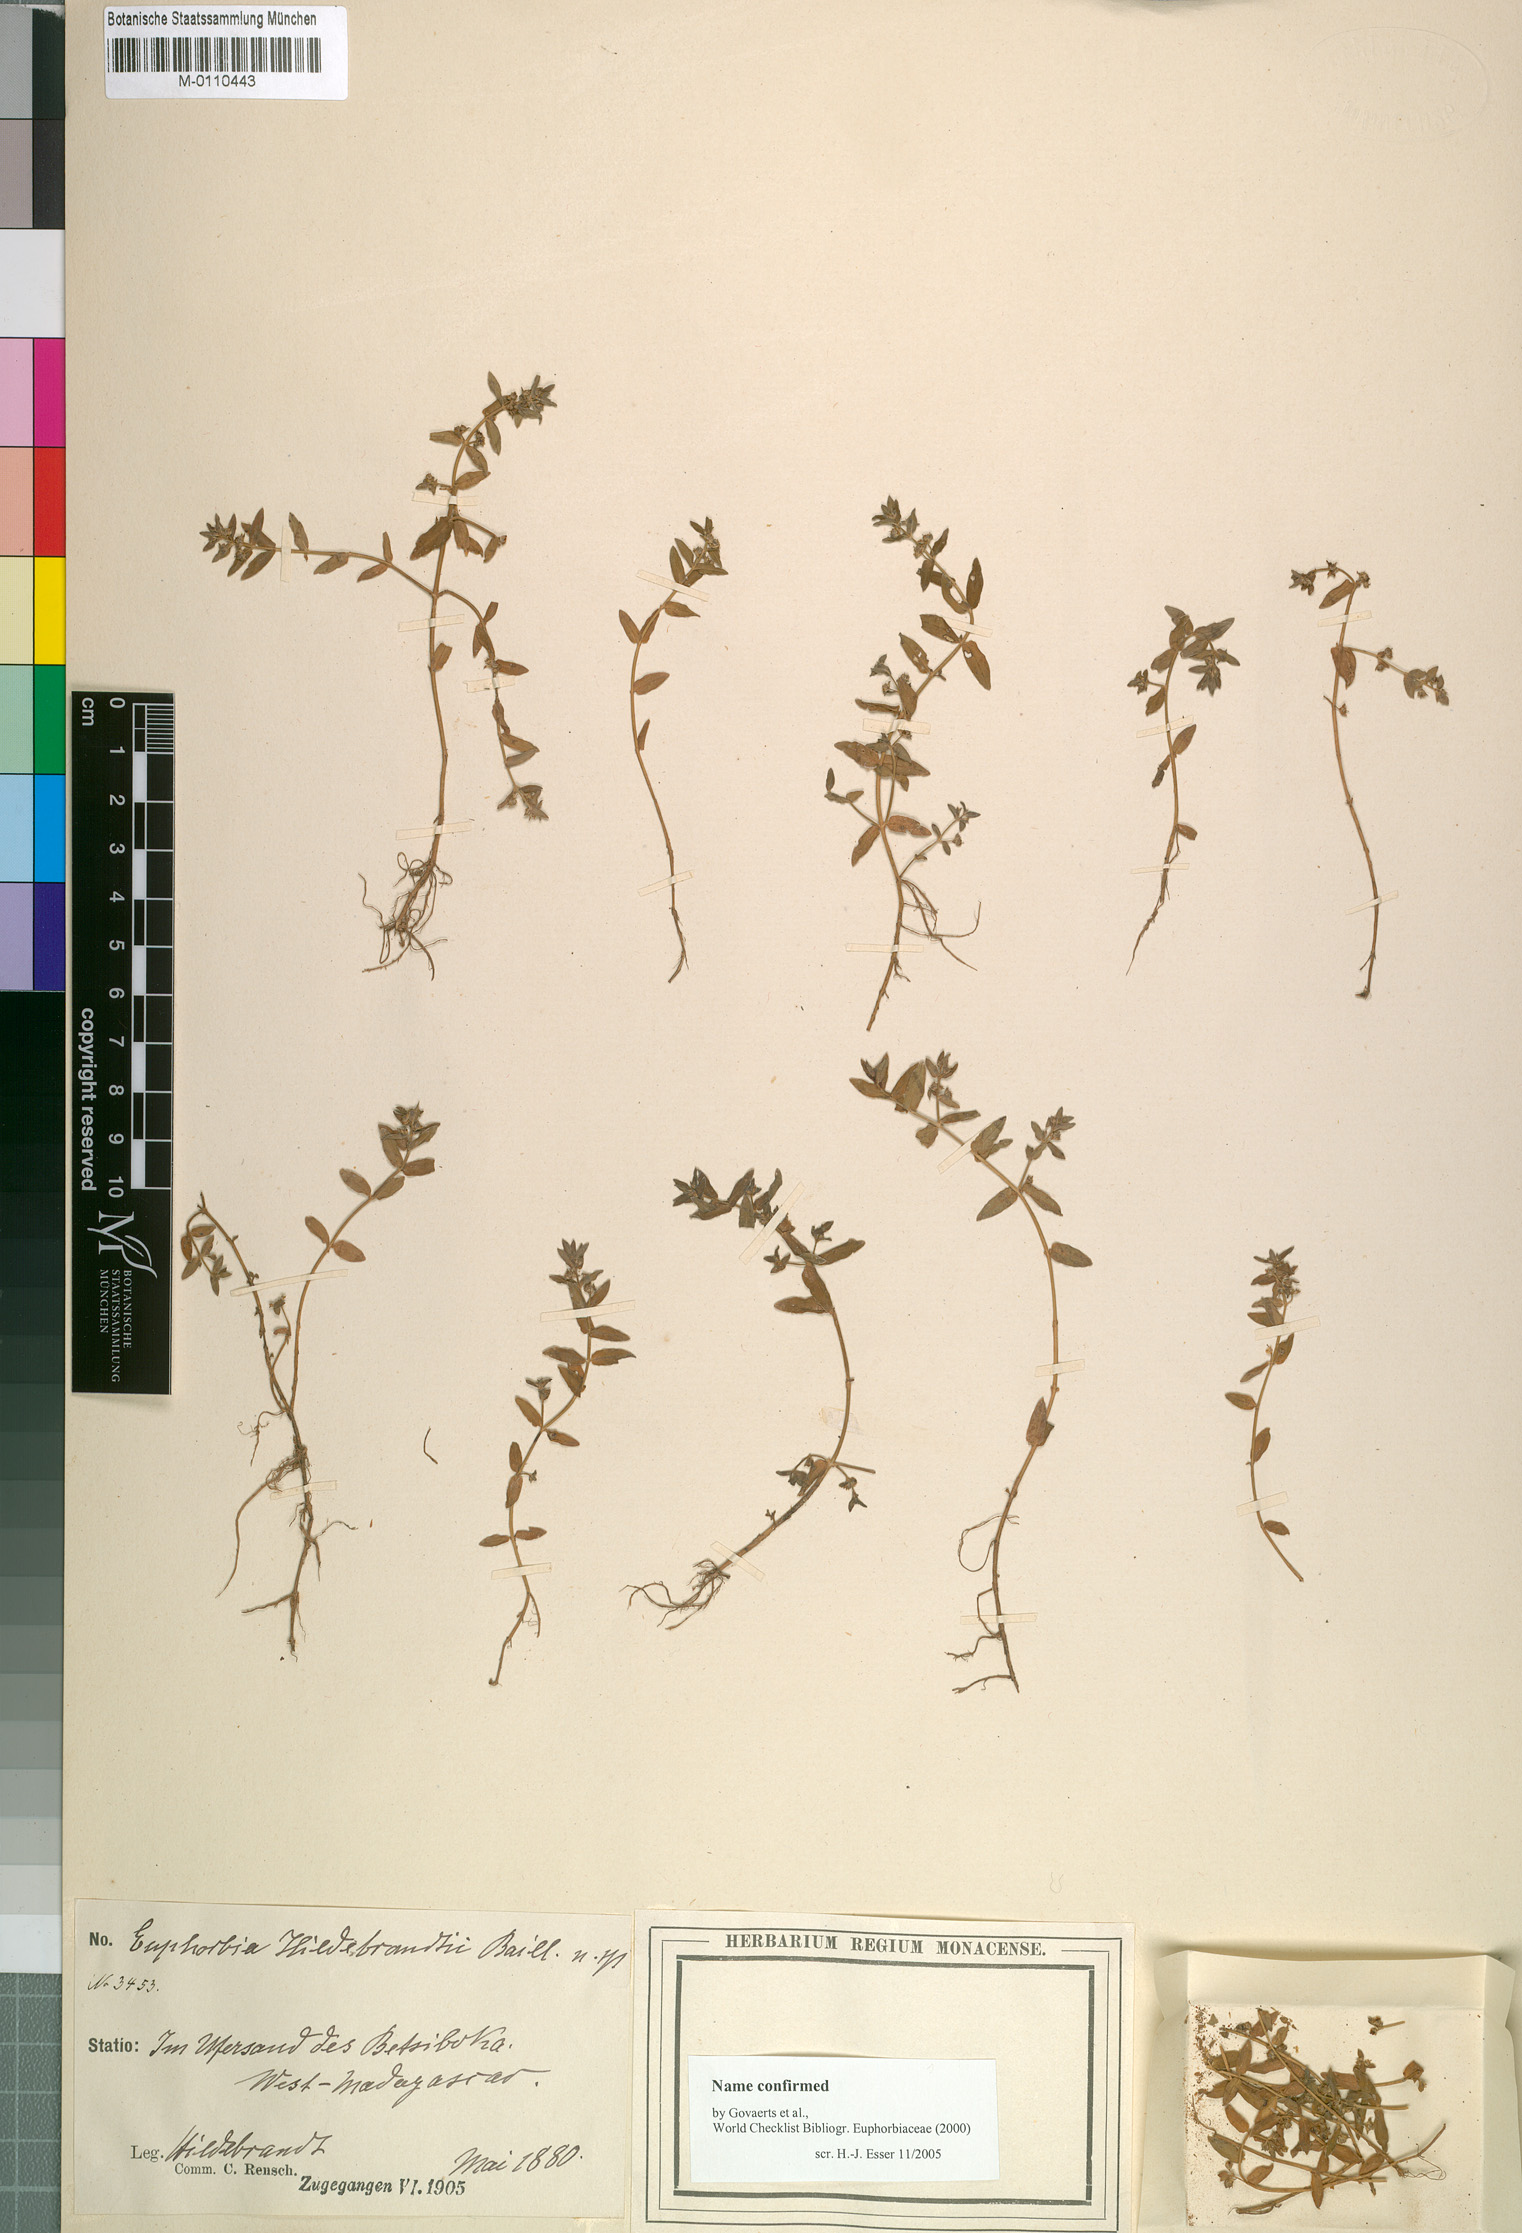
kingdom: Plantae
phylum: Tracheophyta
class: Magnoliopsida
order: Myrtales
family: Lythraceae
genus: Ammannia
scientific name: Ammannia pubescens
